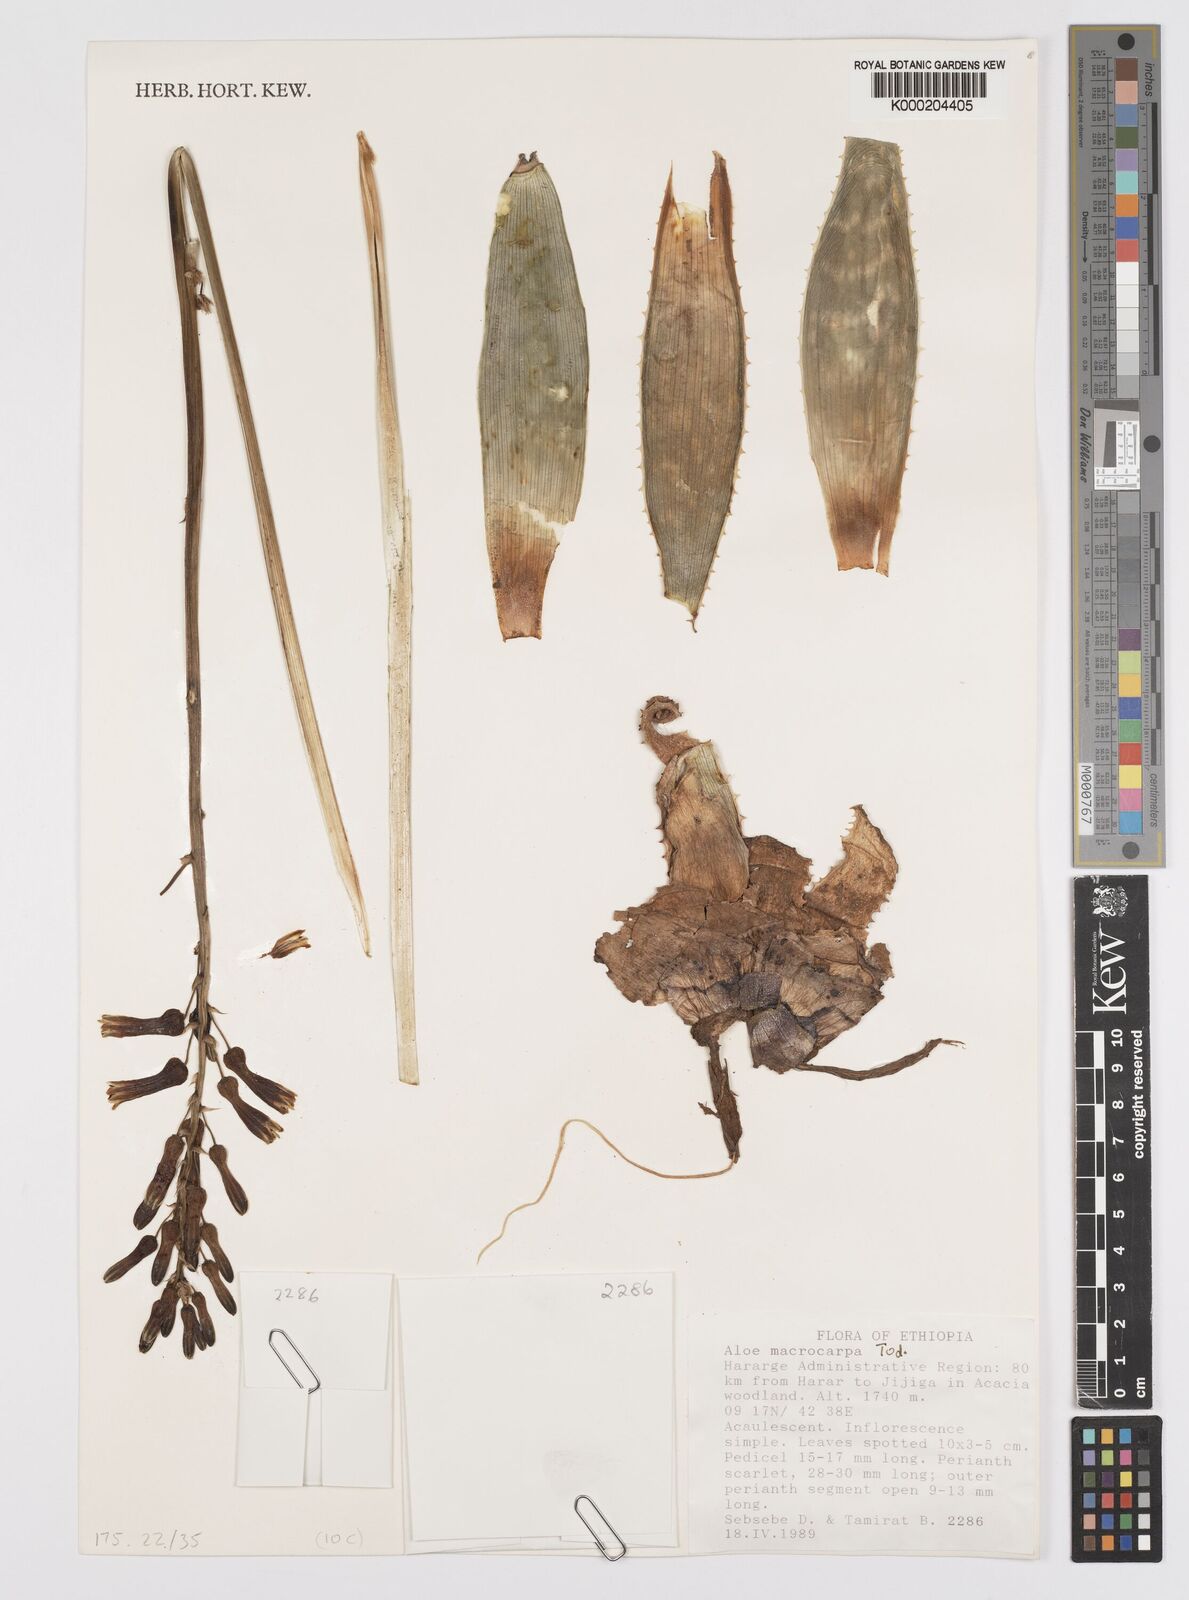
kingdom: Plantae
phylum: Tracheophyta
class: Liliopsida
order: Asparagales
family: Asphodelaceae
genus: Aloe
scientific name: Aloe macrocarpa
